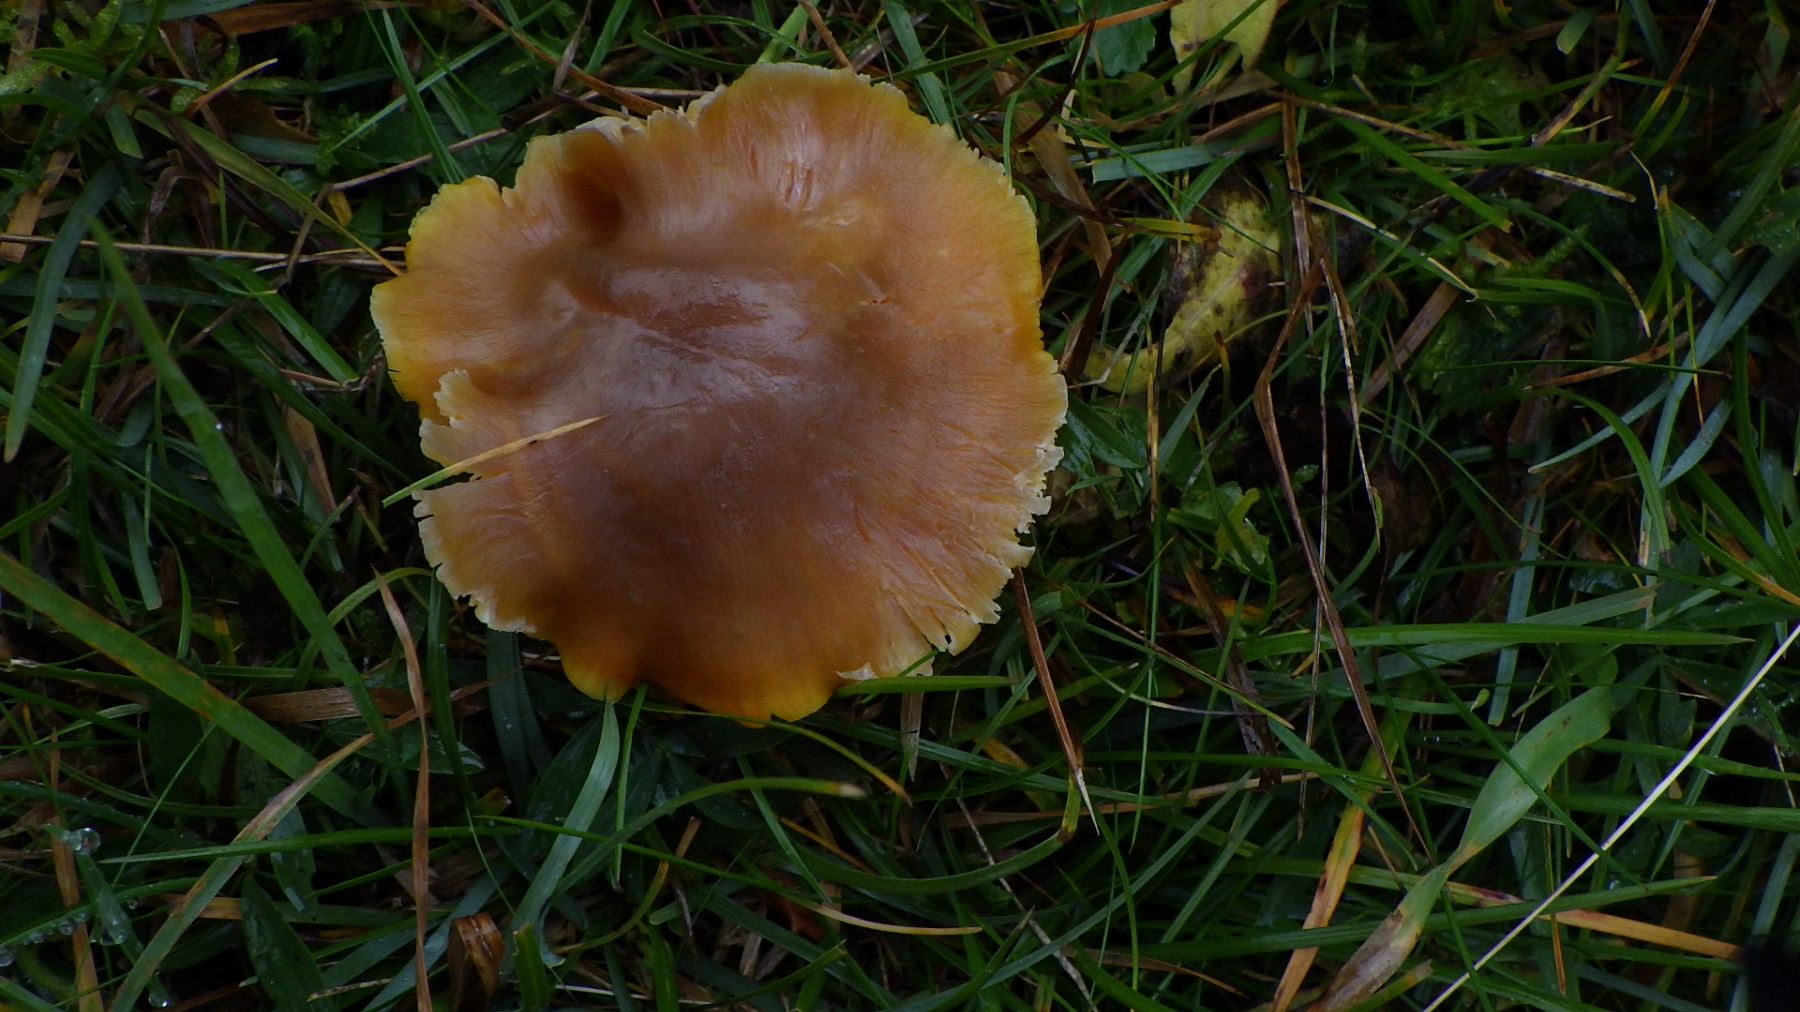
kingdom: Fungi
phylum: Basidiomycota
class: Agaricomycetes
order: Agaricales
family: Hygrophoraceae
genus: Hygrocybe
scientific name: Hygrocybe quieta
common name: tæge-vokshat
